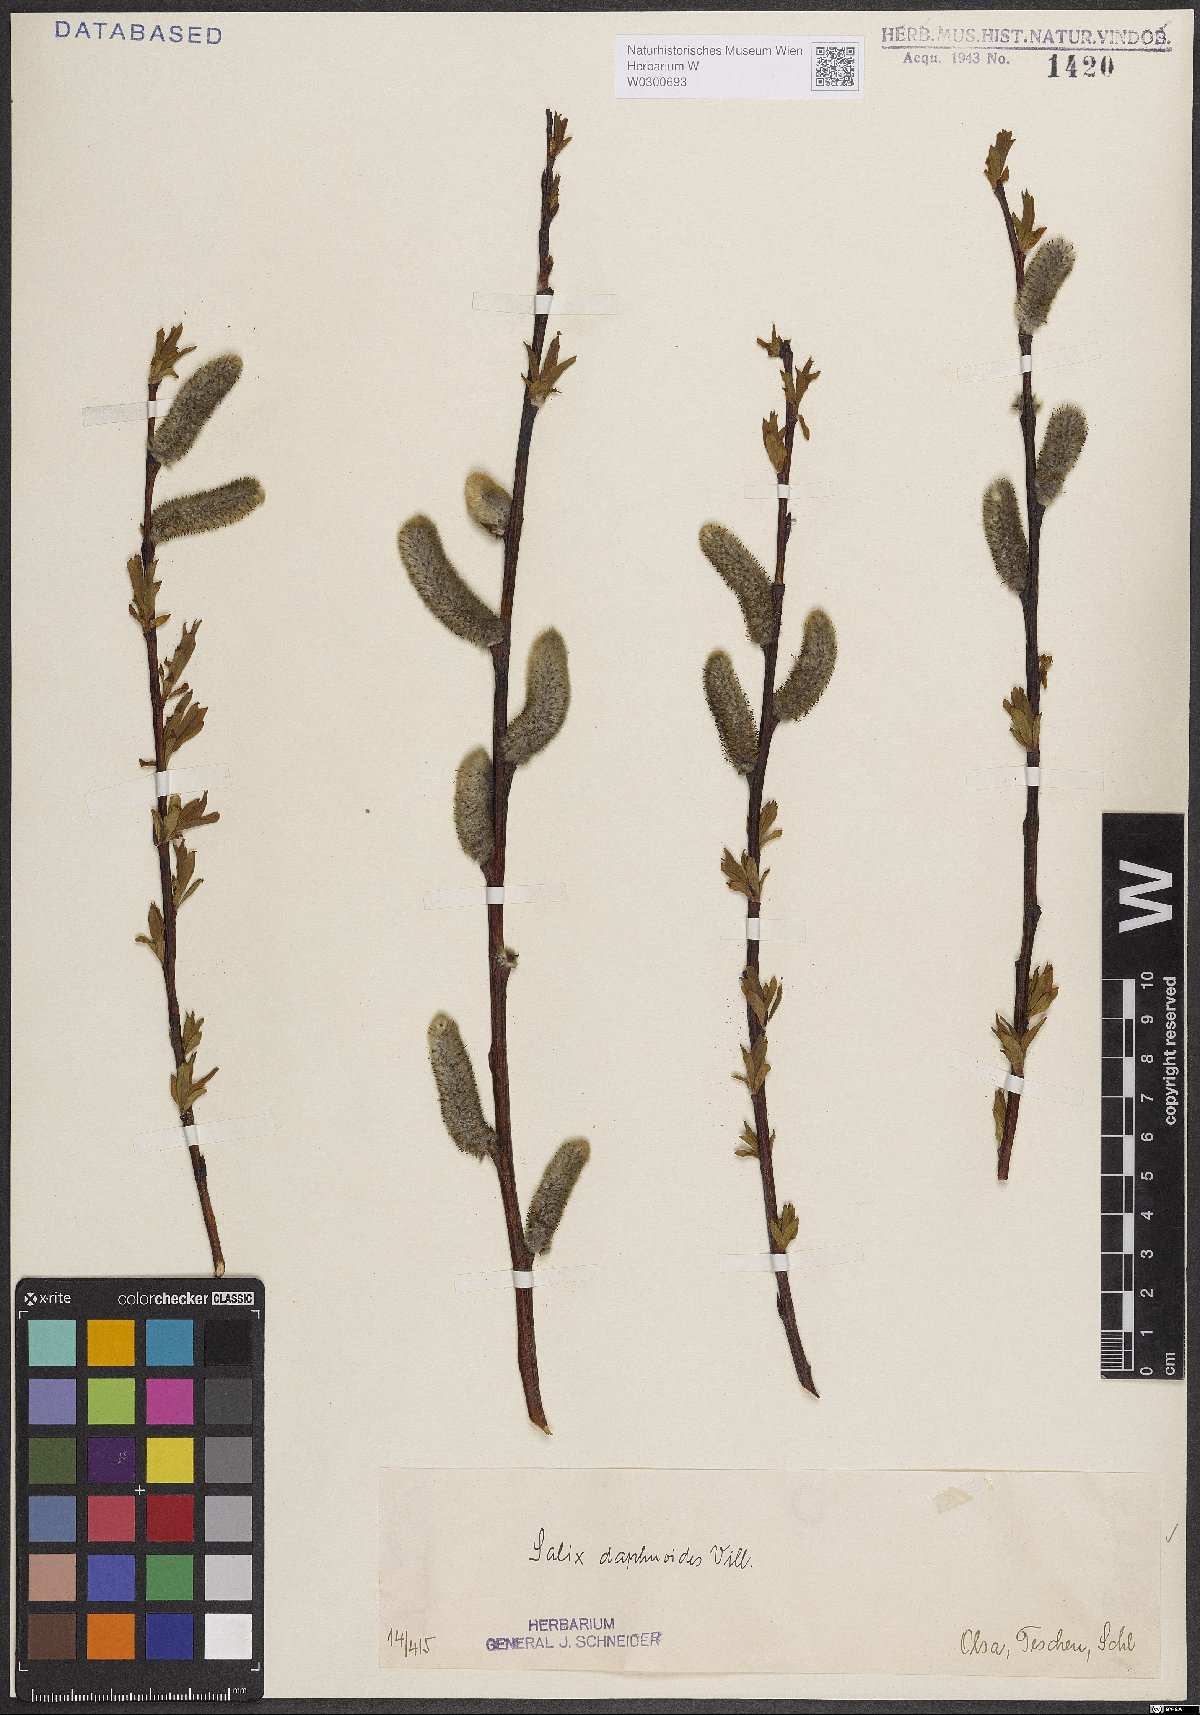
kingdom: Plantae
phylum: Tracheophyta
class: Magnoliopsida
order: Malpighiales
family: Salicaceae
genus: Salix
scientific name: Salix daphnoides
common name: European violet-willow
